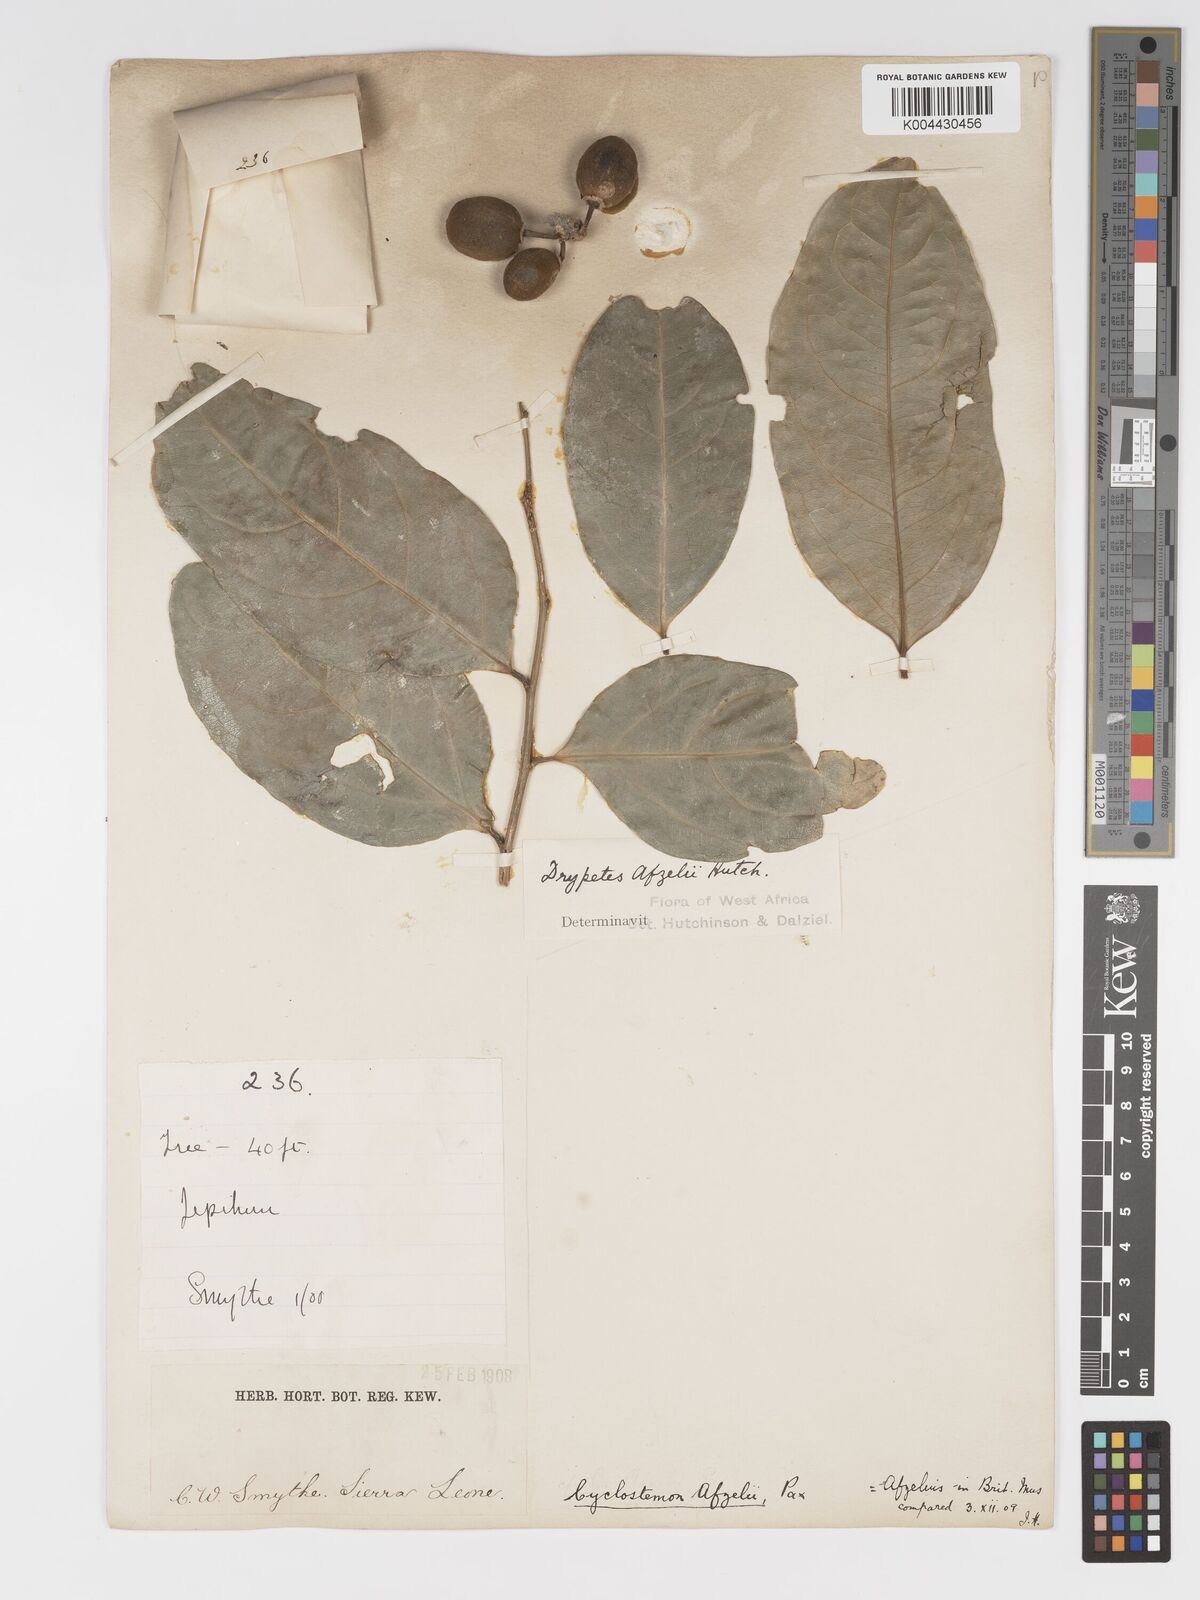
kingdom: Plantae
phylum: Tracheophyta
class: Magnoliopsida
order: Malpighiales
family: Putranjivaceae
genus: Drypetes
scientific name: Drypetes afzelii
